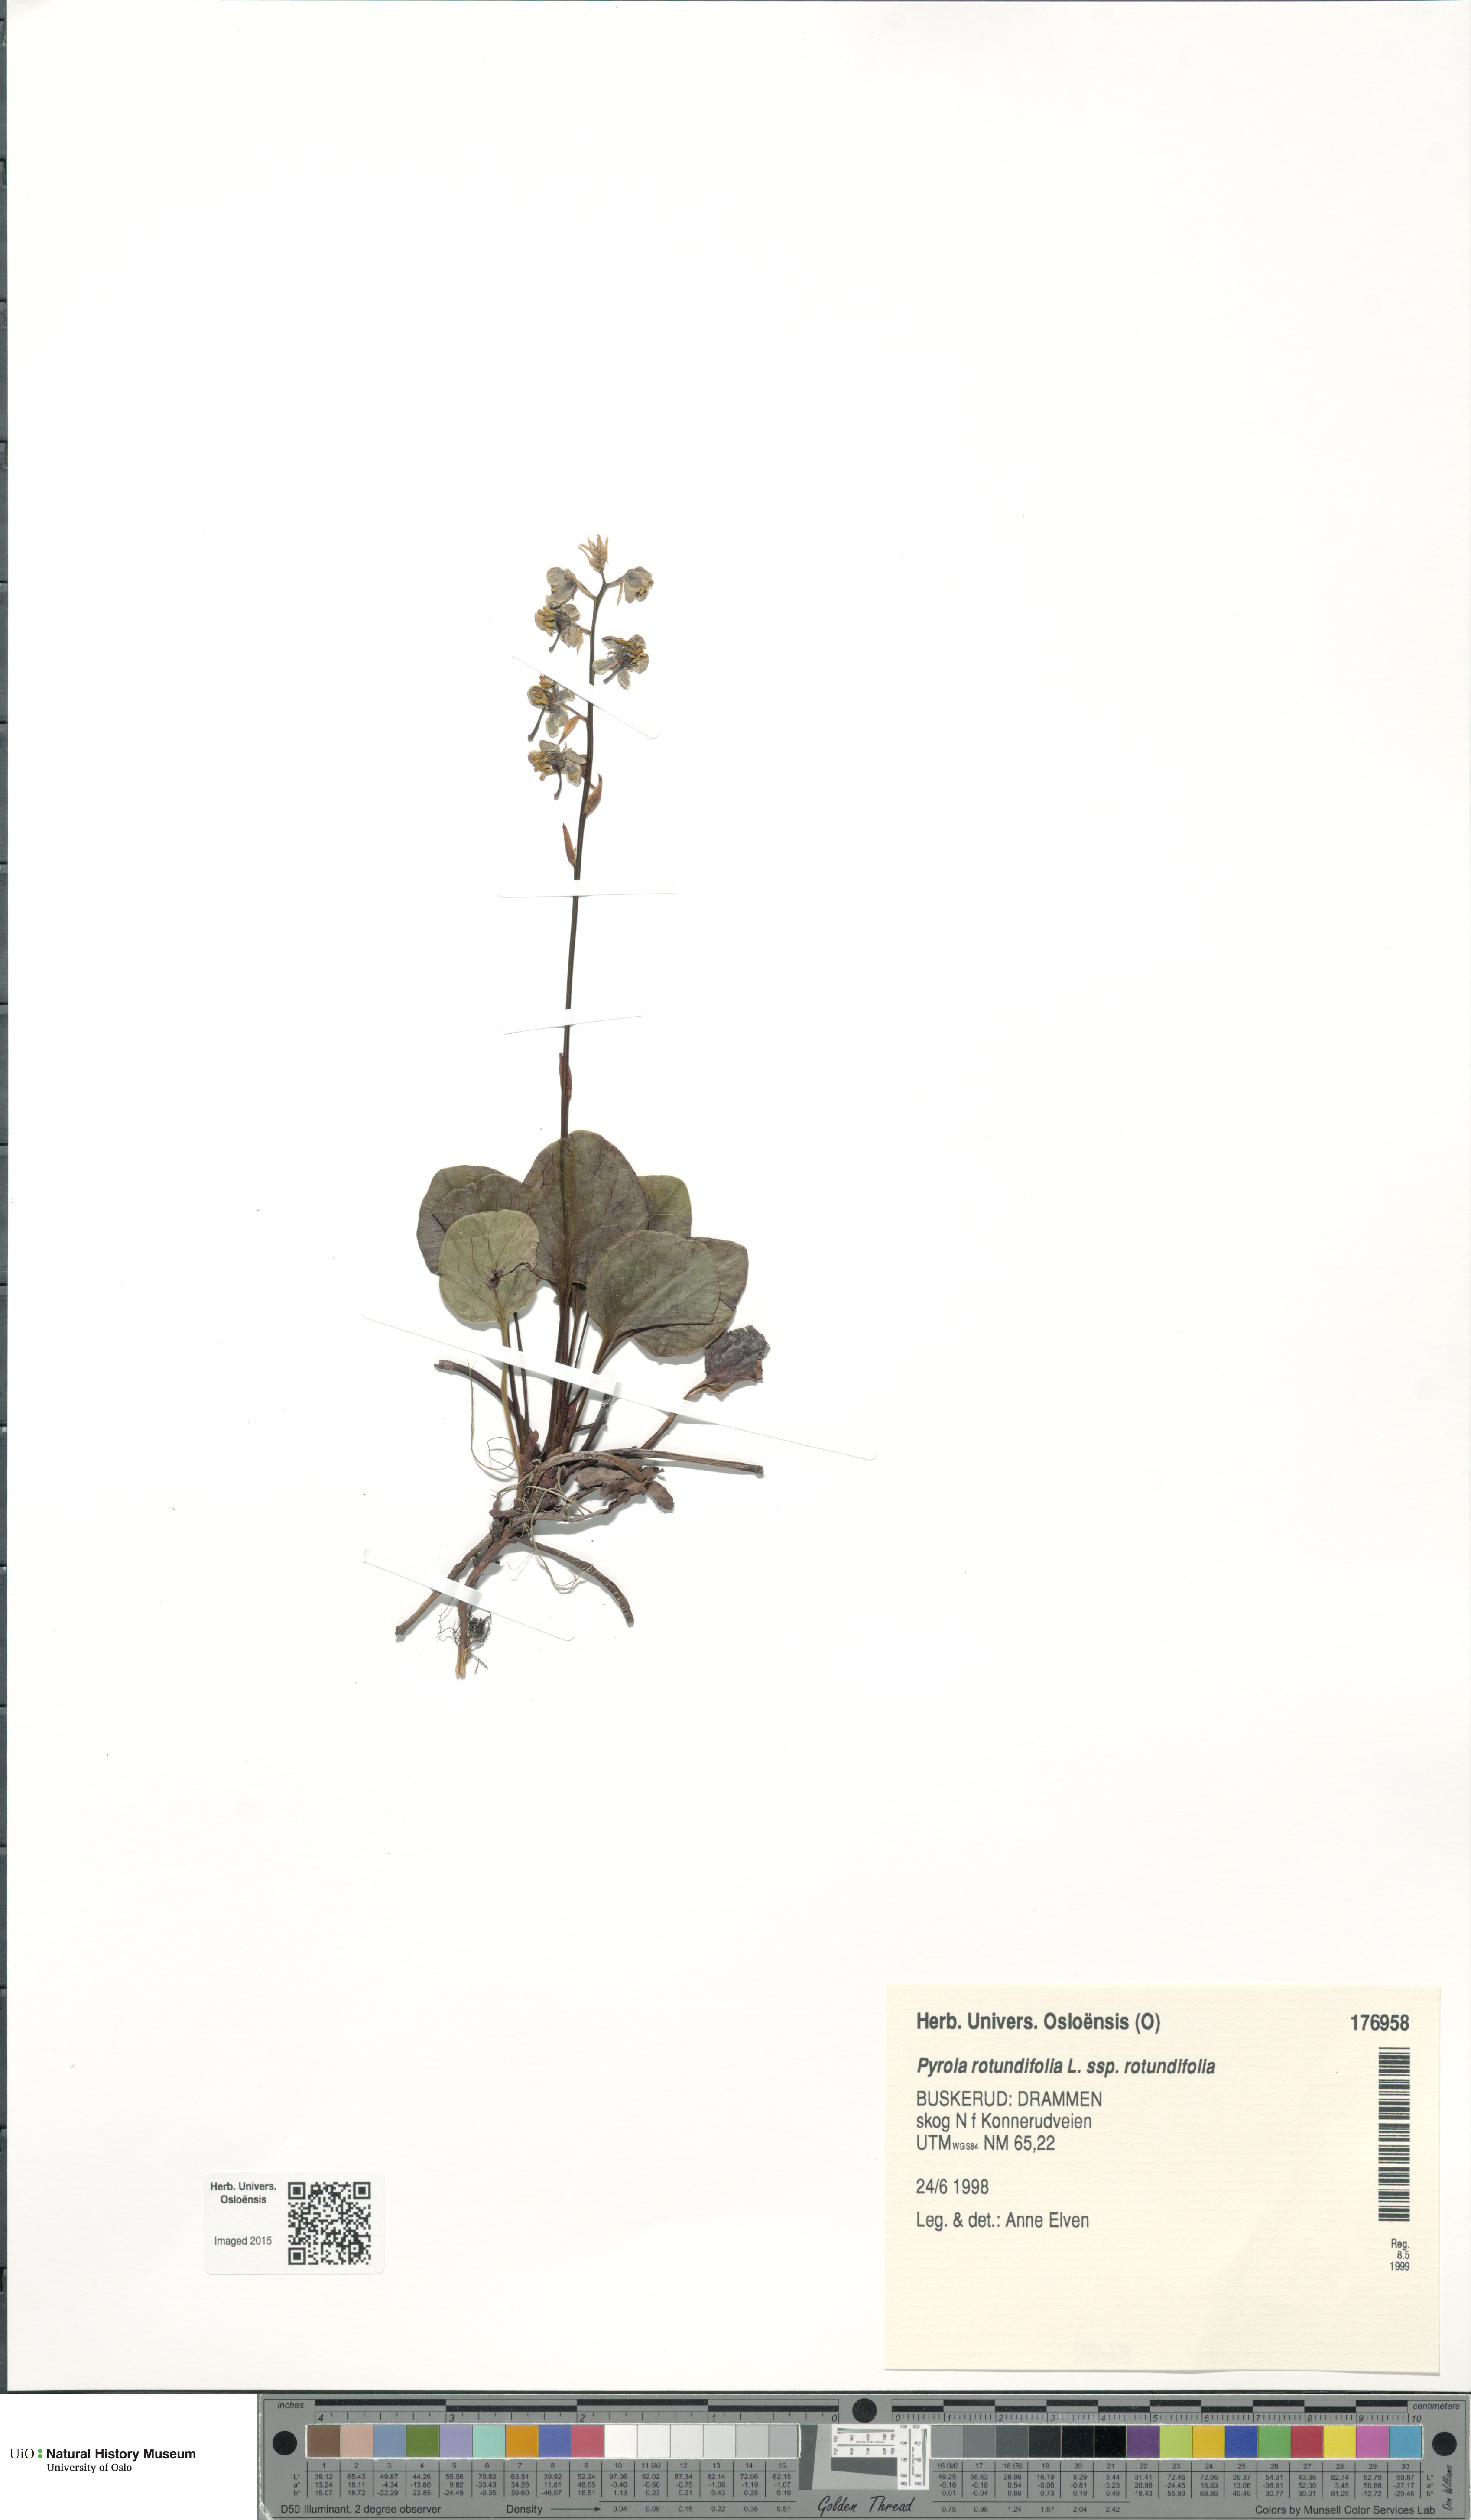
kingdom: Plantae
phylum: Tracheophyta
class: Magnoliopsida
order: Ericales
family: Ericaceae
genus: Pyrola
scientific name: Pyrola rotundifolia
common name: Round-leaved wintergreen
